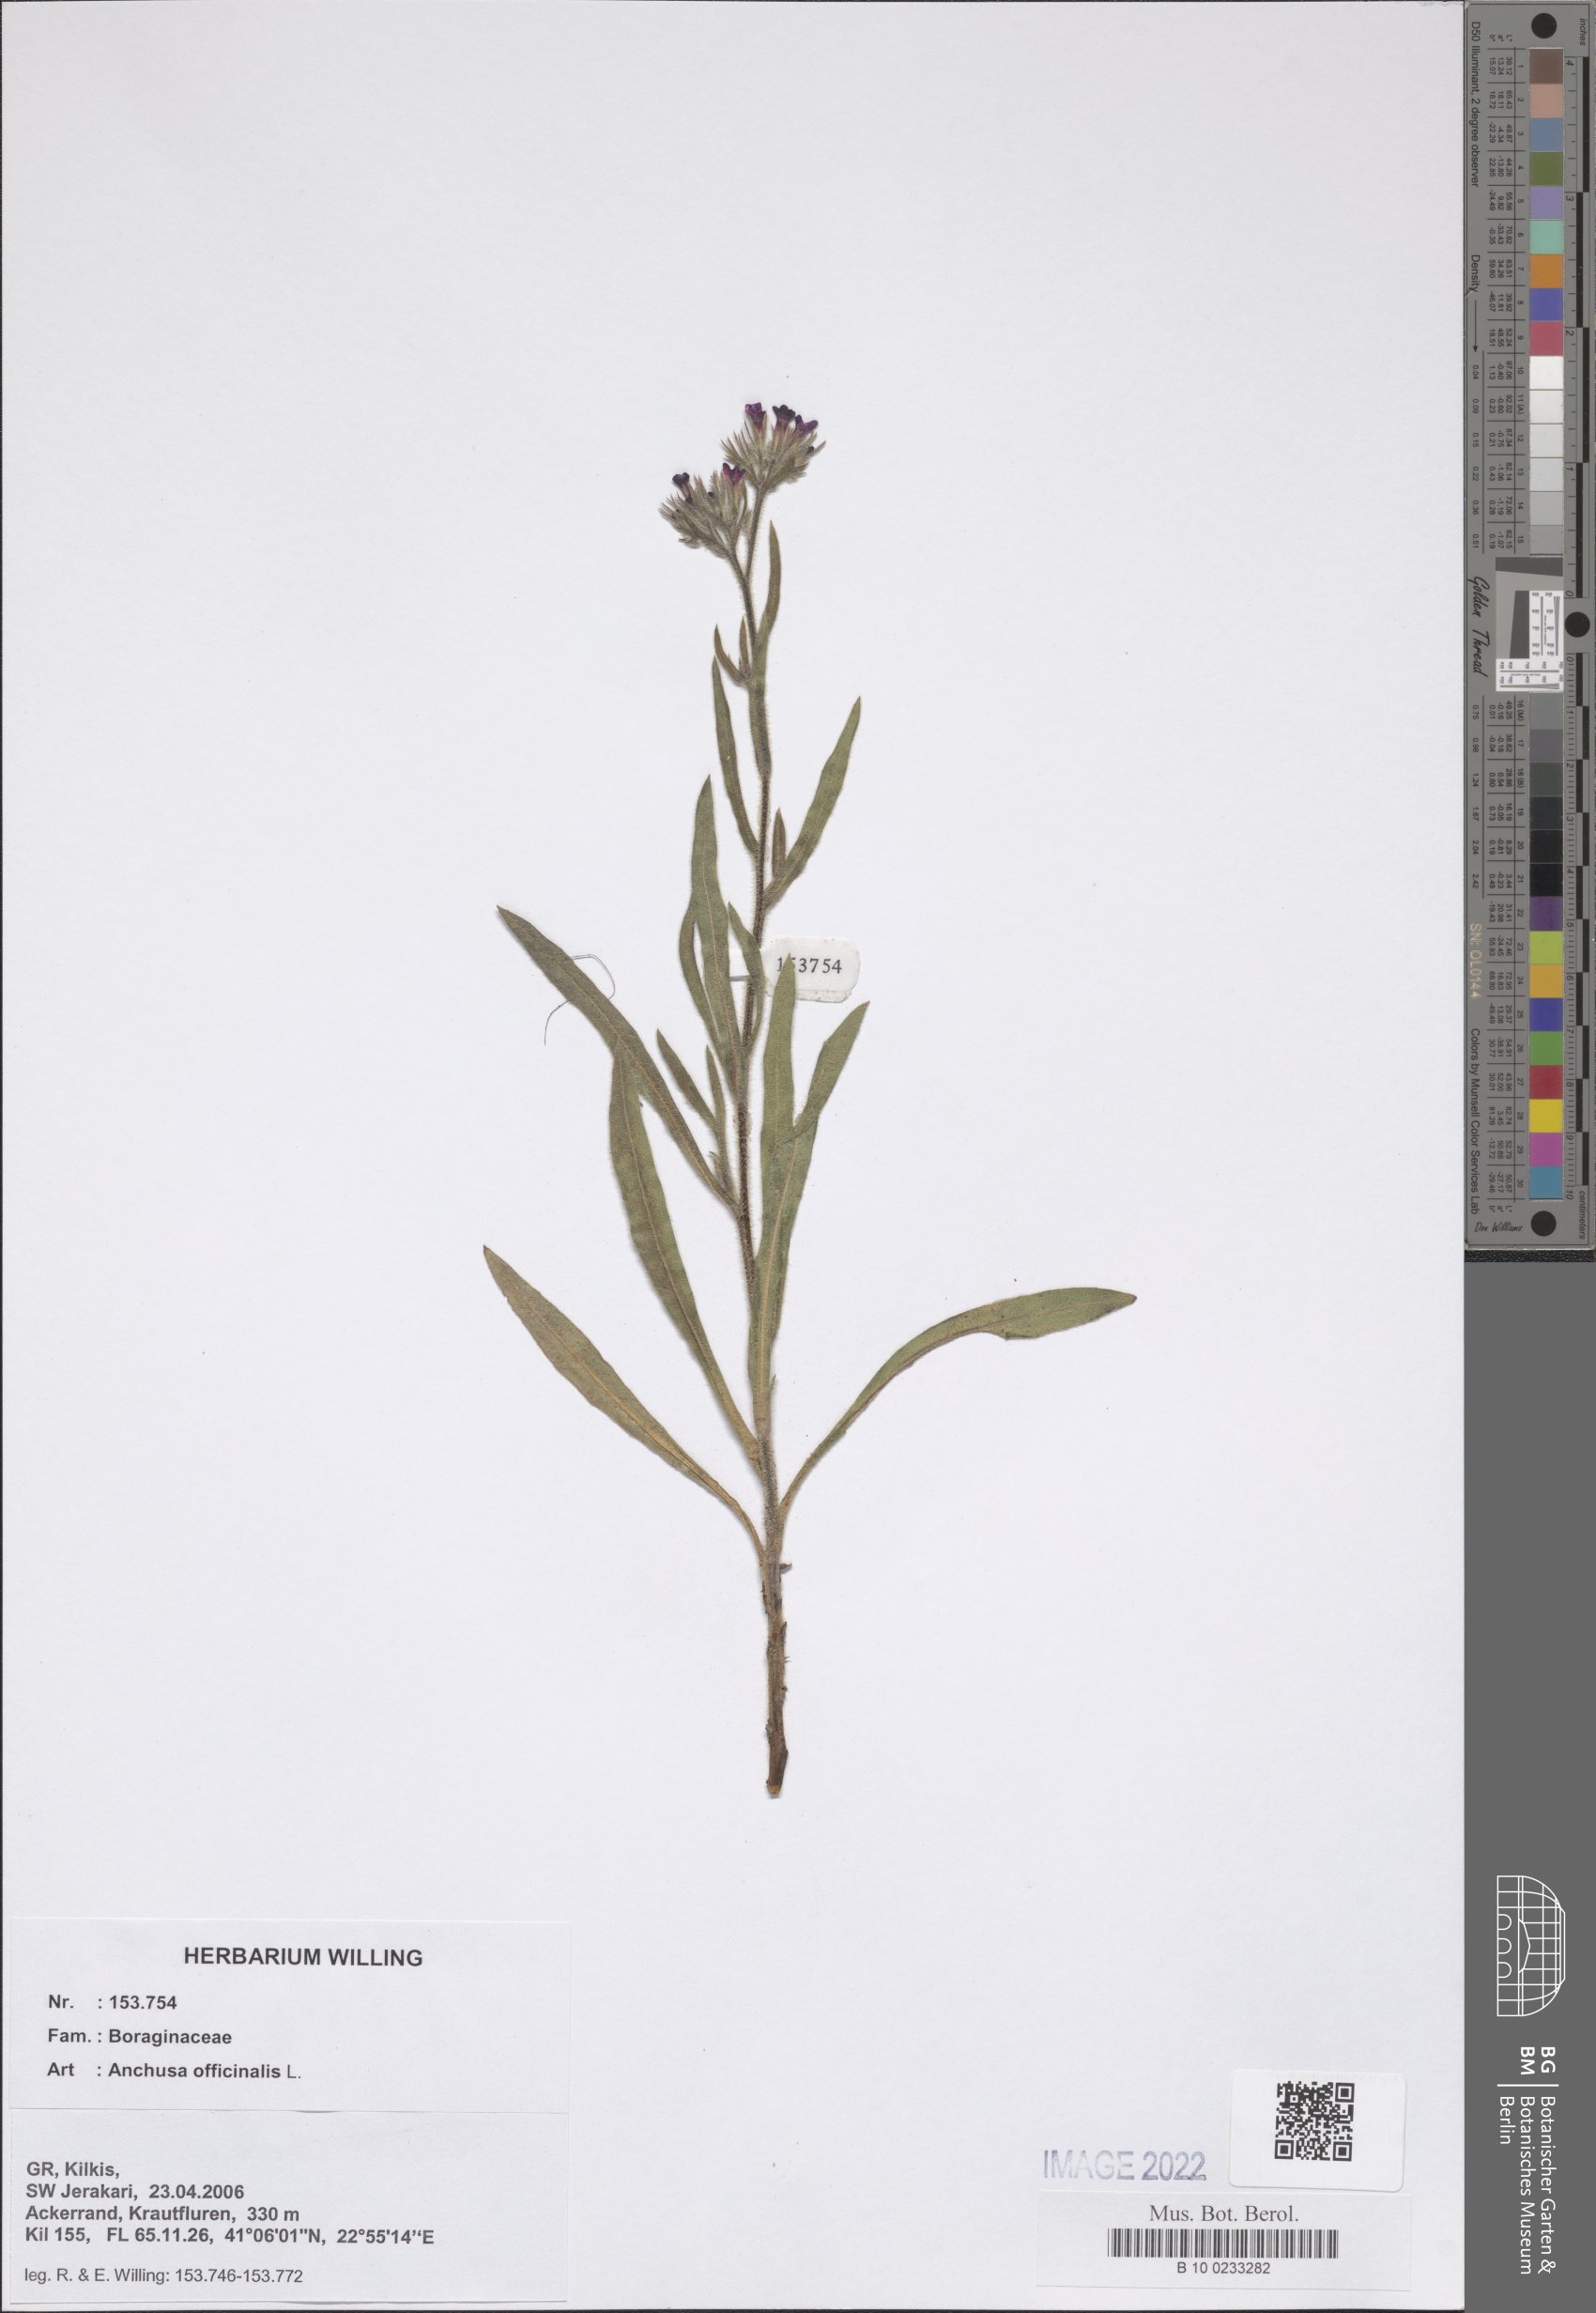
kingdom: Plantae
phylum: Tracheophyta
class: Magnoliopsida
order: Boraginales
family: Boraginaceae
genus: Anchusa
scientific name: Anchusa officinalis
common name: Alkanet
